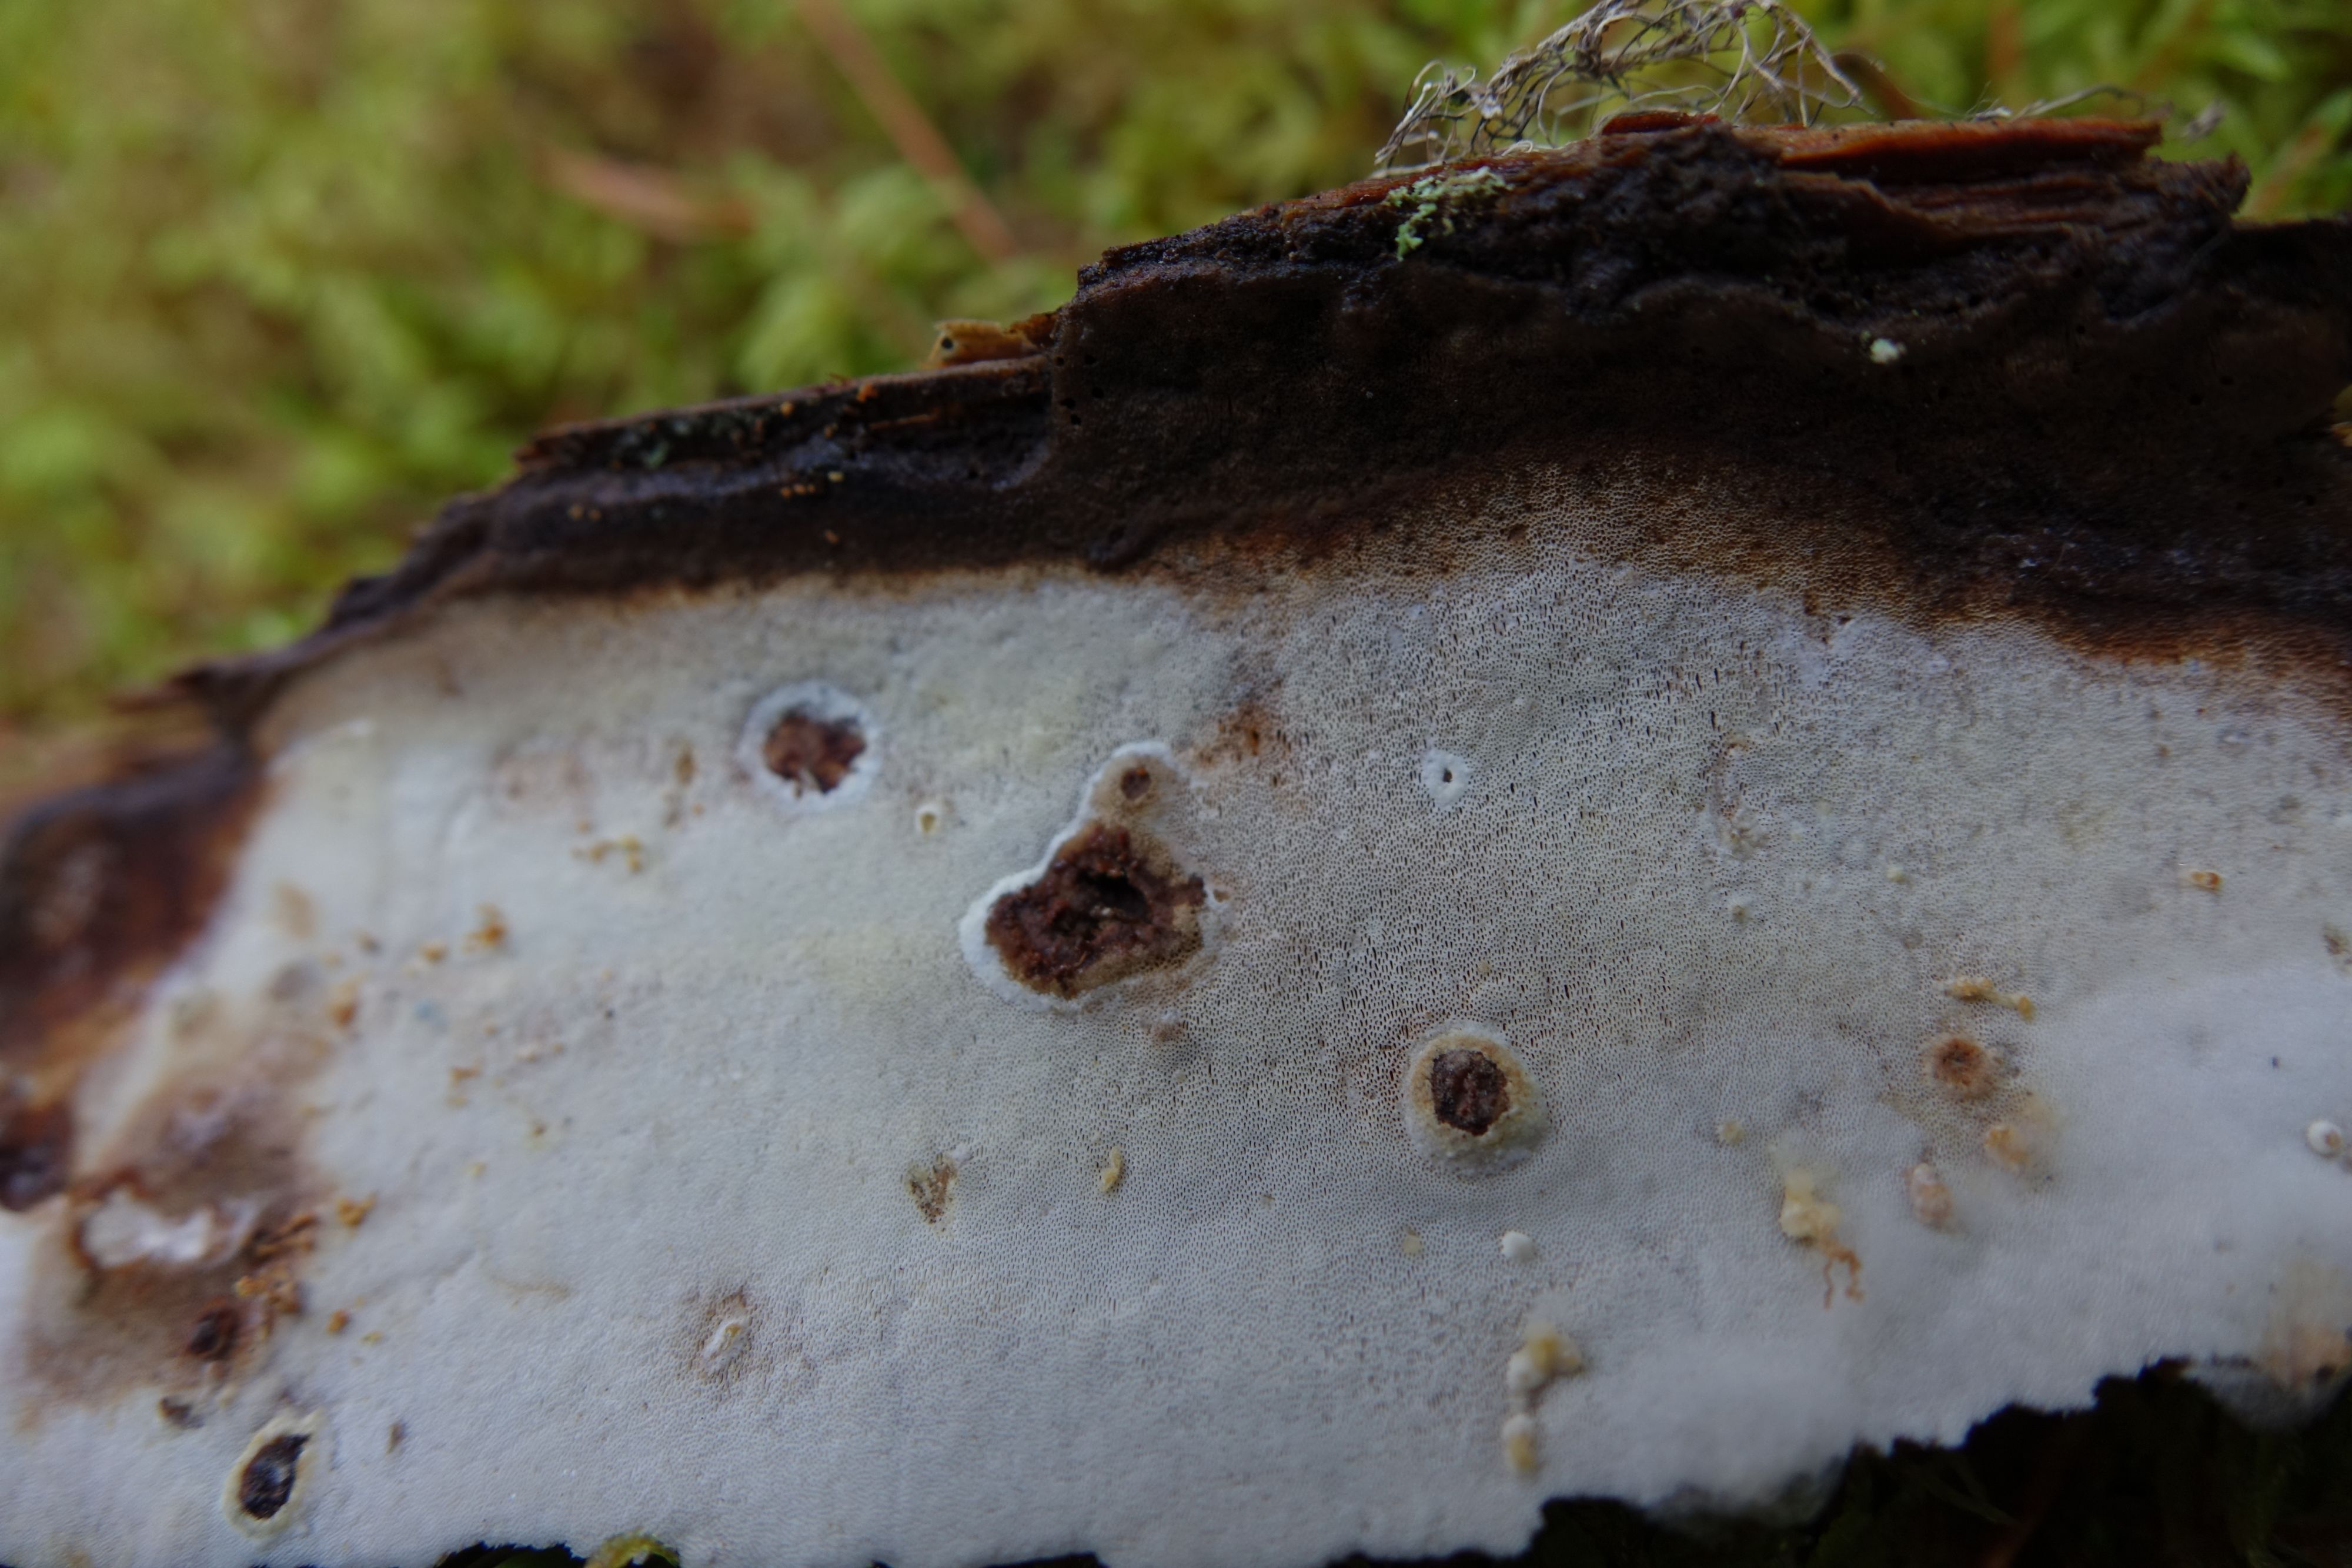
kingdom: Fungi
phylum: Basidiomycota
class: Agaricomycetes
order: Polyporales
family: Incrustoporiaceae
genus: Skeletocutis
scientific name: Skeletocutis stellae
